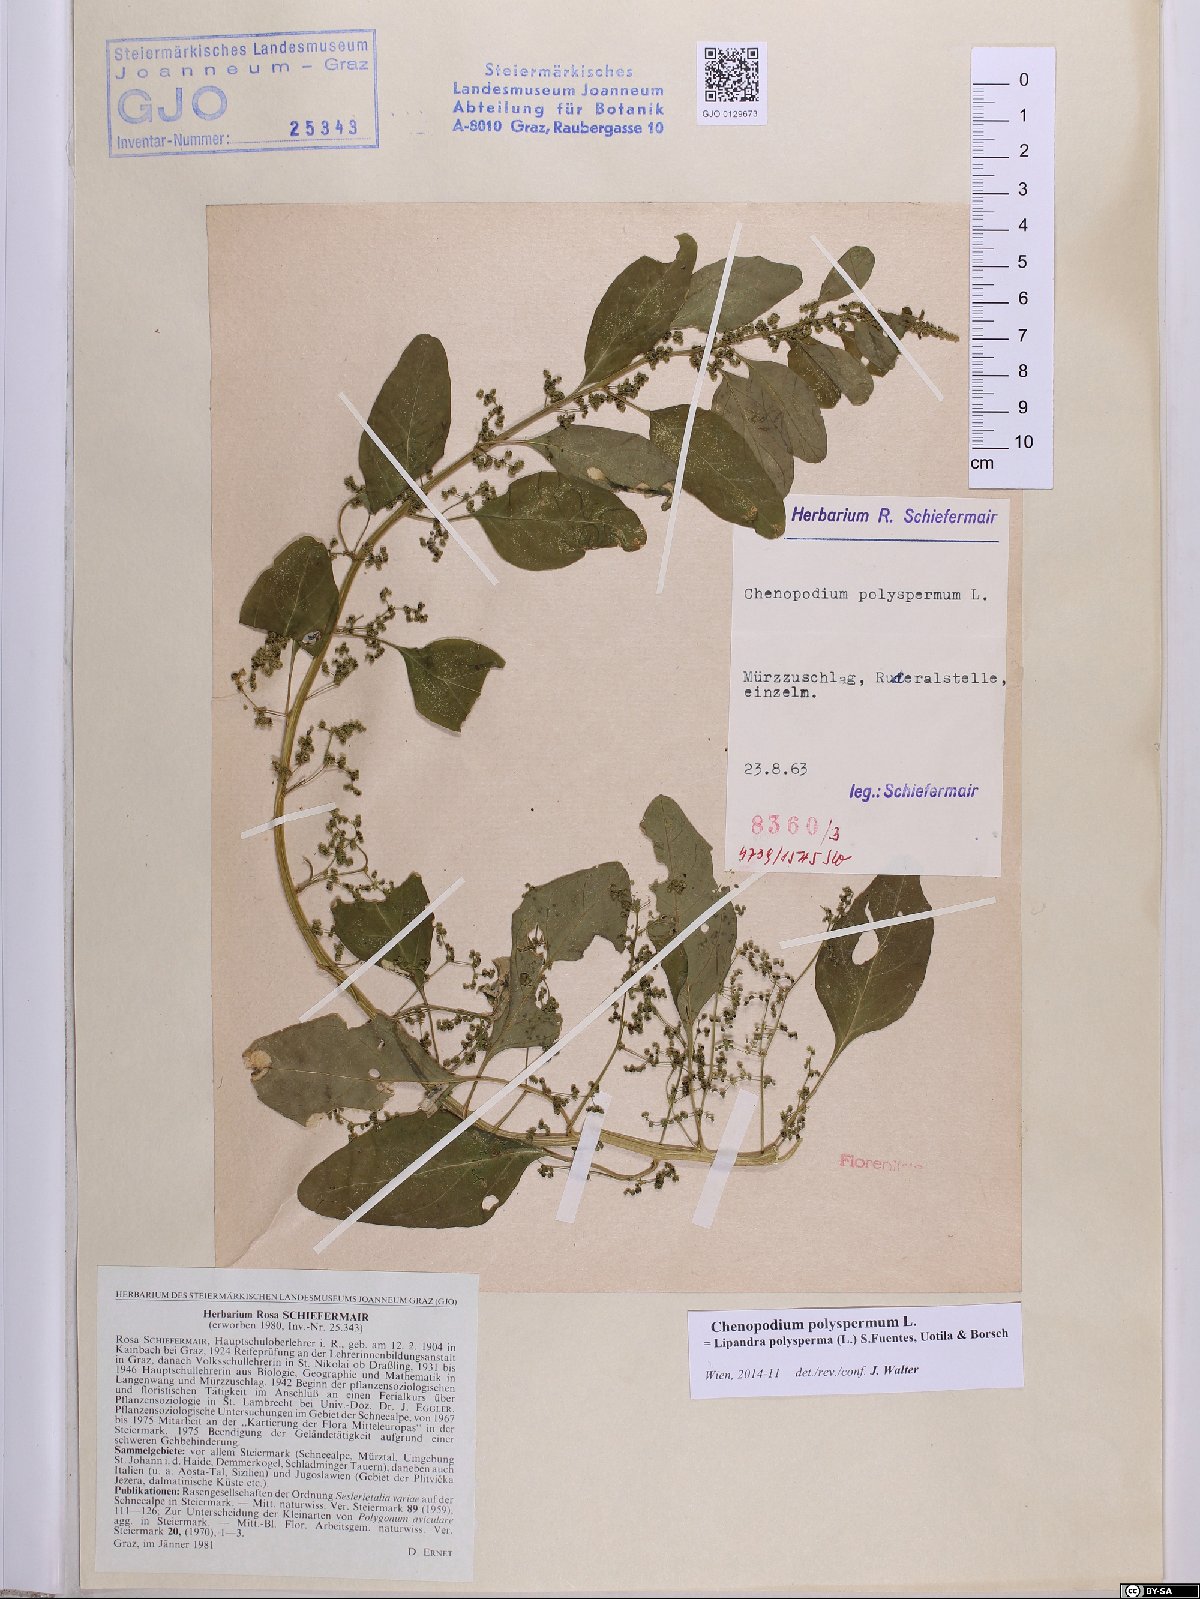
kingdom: Plantae
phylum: Tracheophyta
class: Magnoliopsida
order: Caryophyllales
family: Amaranthaceae
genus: Lipandra
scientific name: Lipandra polysperma
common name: Many-seed goosefoot
